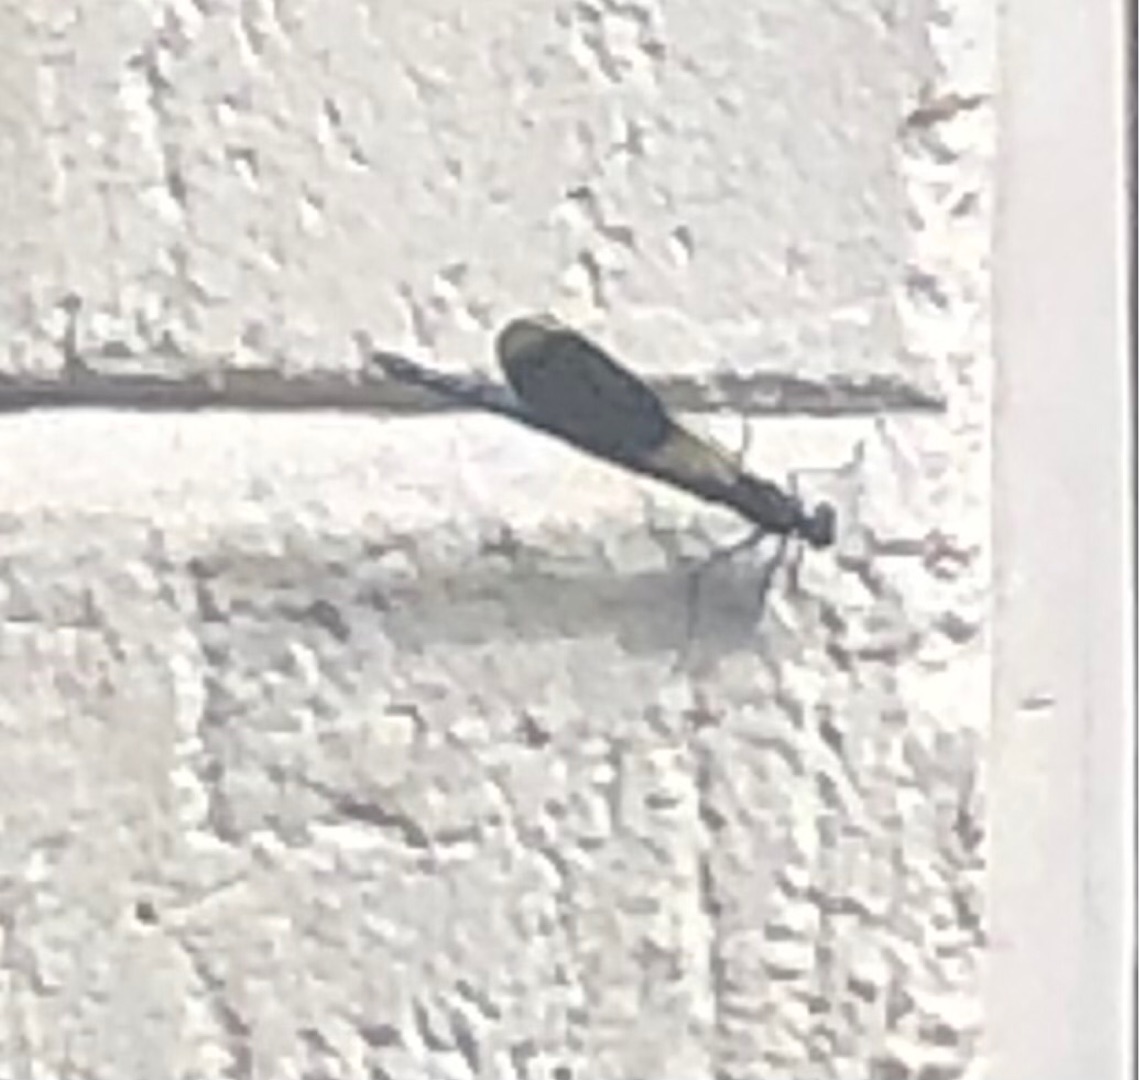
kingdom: Animalia
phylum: Arthropoda
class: Insecta
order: Odonata
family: Calopterygidae
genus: Calopteryx
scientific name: Calopteryx splendens
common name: Blåbåndet pragtvandnymfe
